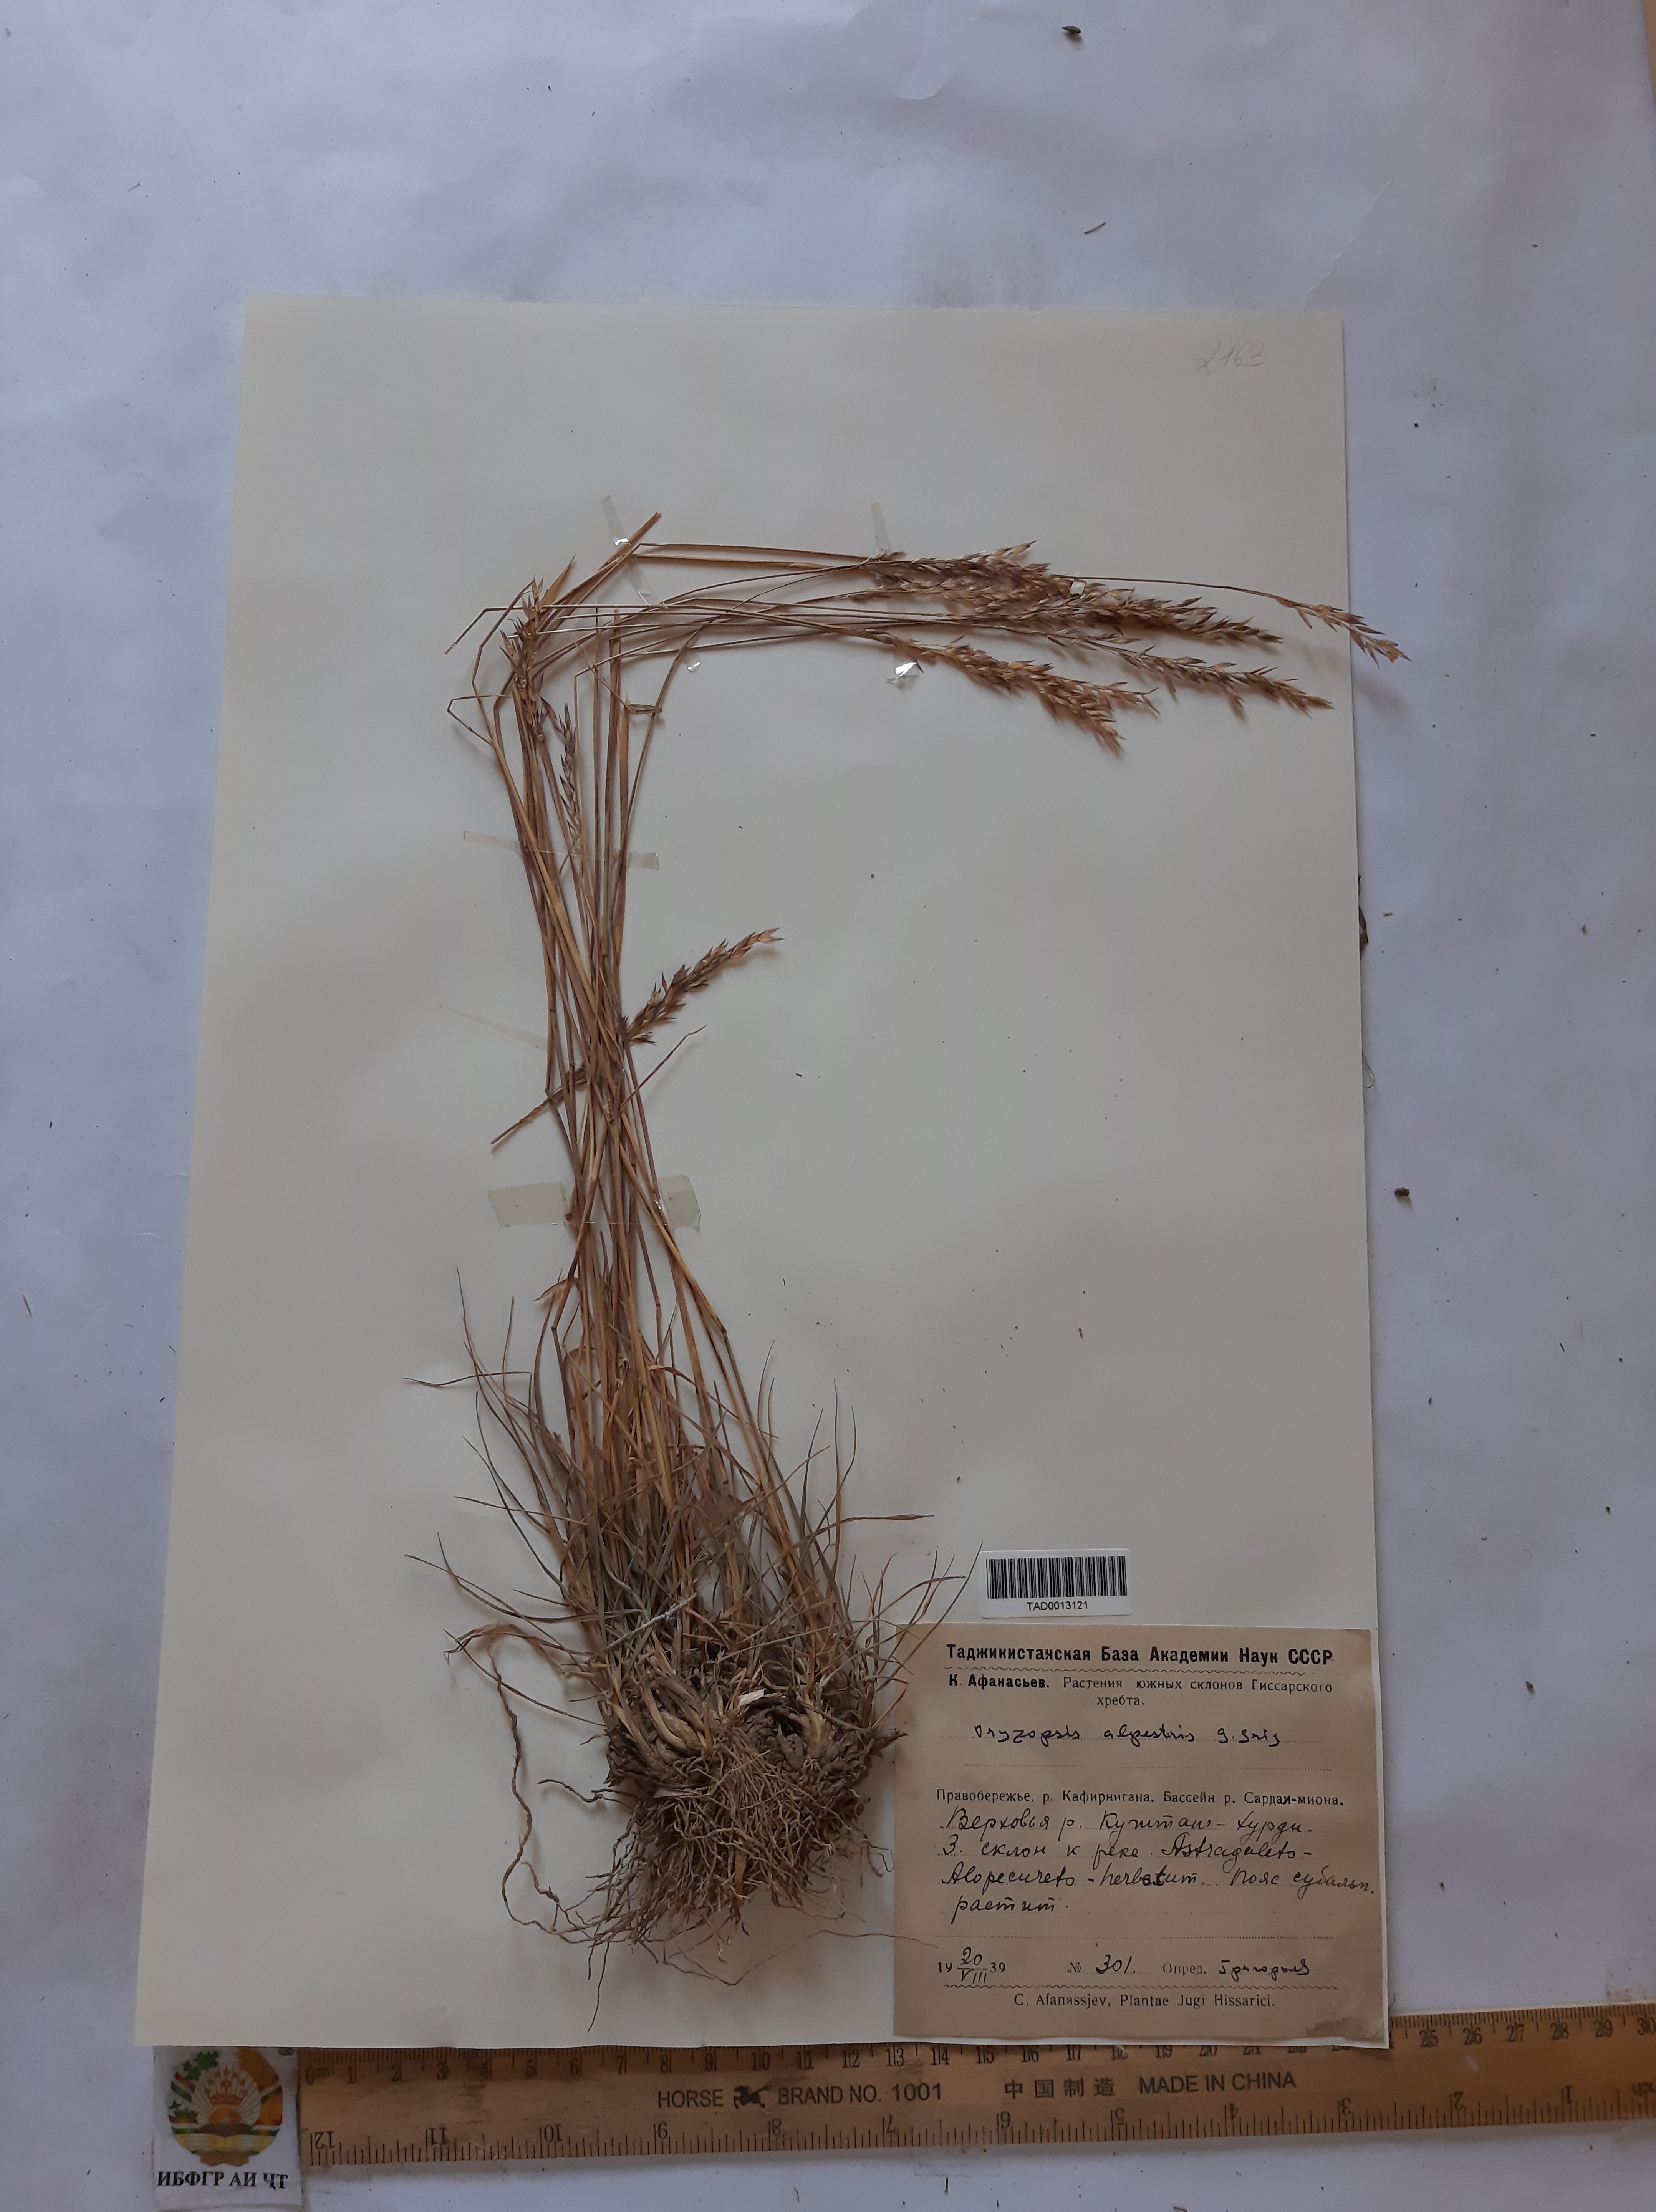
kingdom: Plantae
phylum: Tracheophyta
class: Liliopsida
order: Poales
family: Poaceae
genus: Piptatherum
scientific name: Piptatherum alpestre
